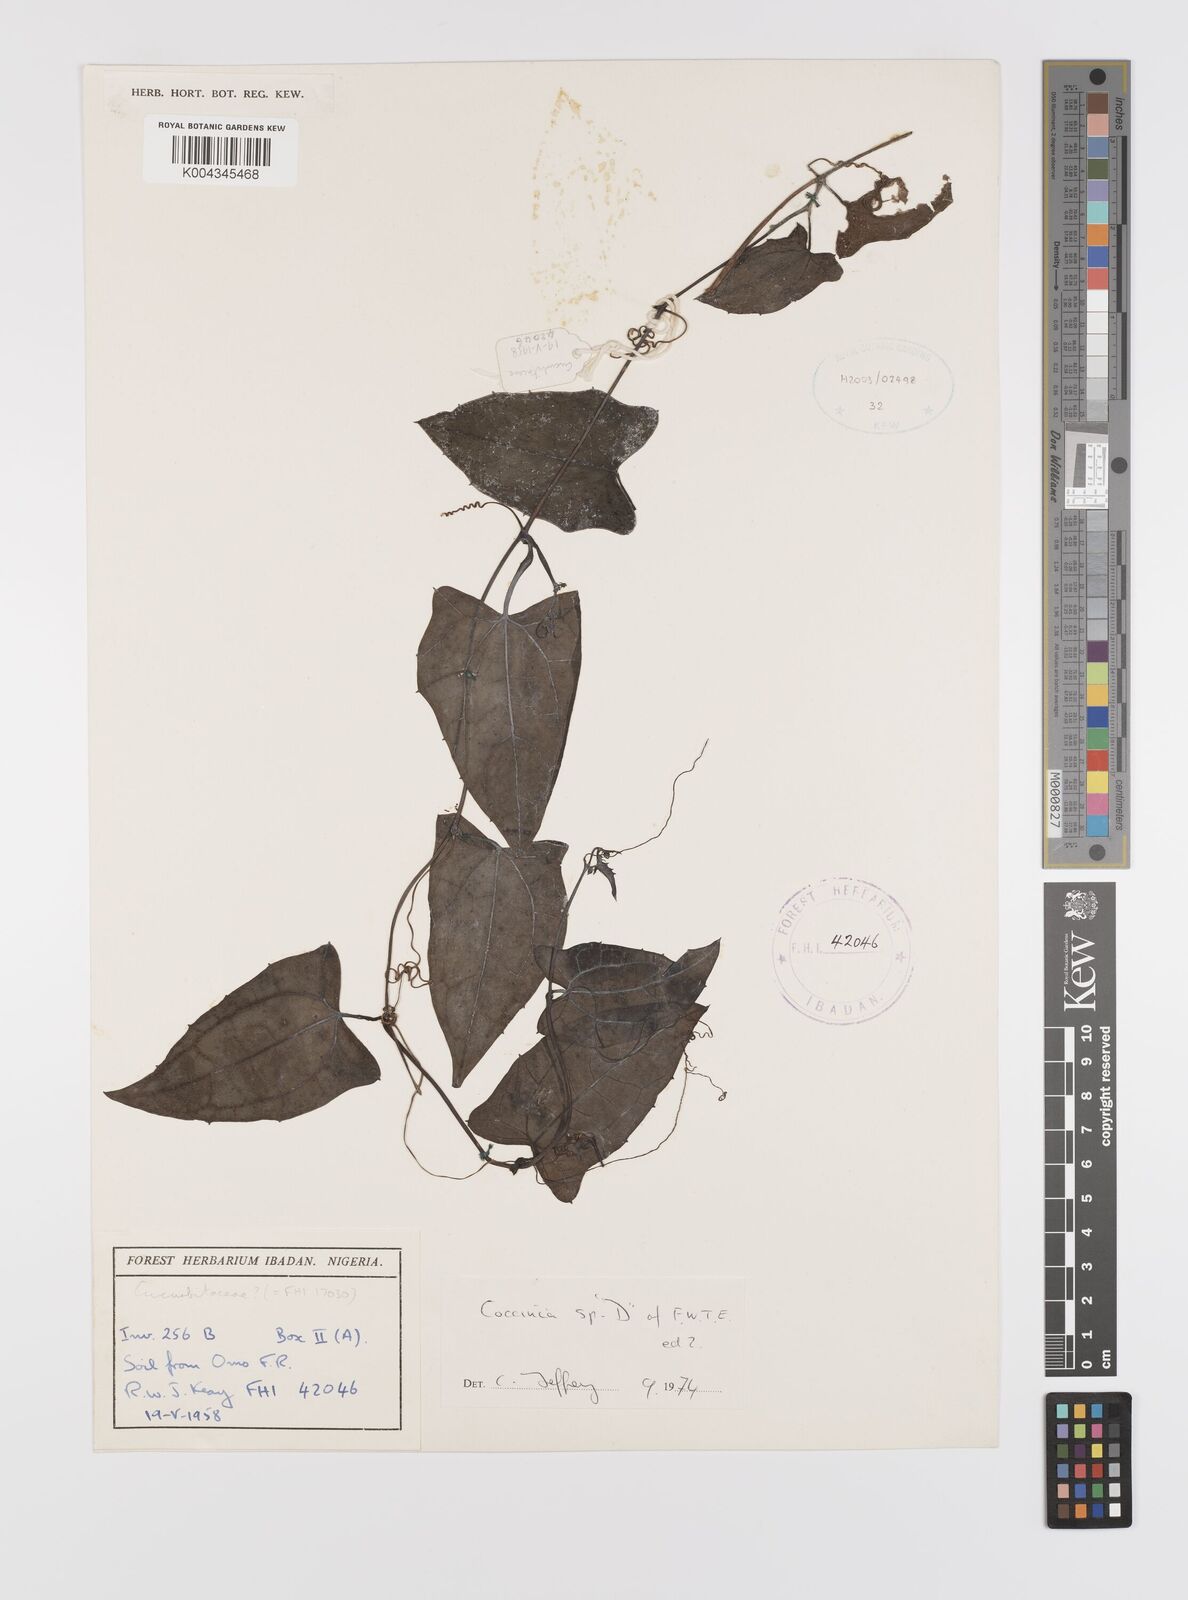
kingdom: Plantae
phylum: Tracheophyta
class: Magnoliopsida
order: Cucurbitales
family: Cucurbitaceae
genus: Coccinia
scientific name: Coccinia
